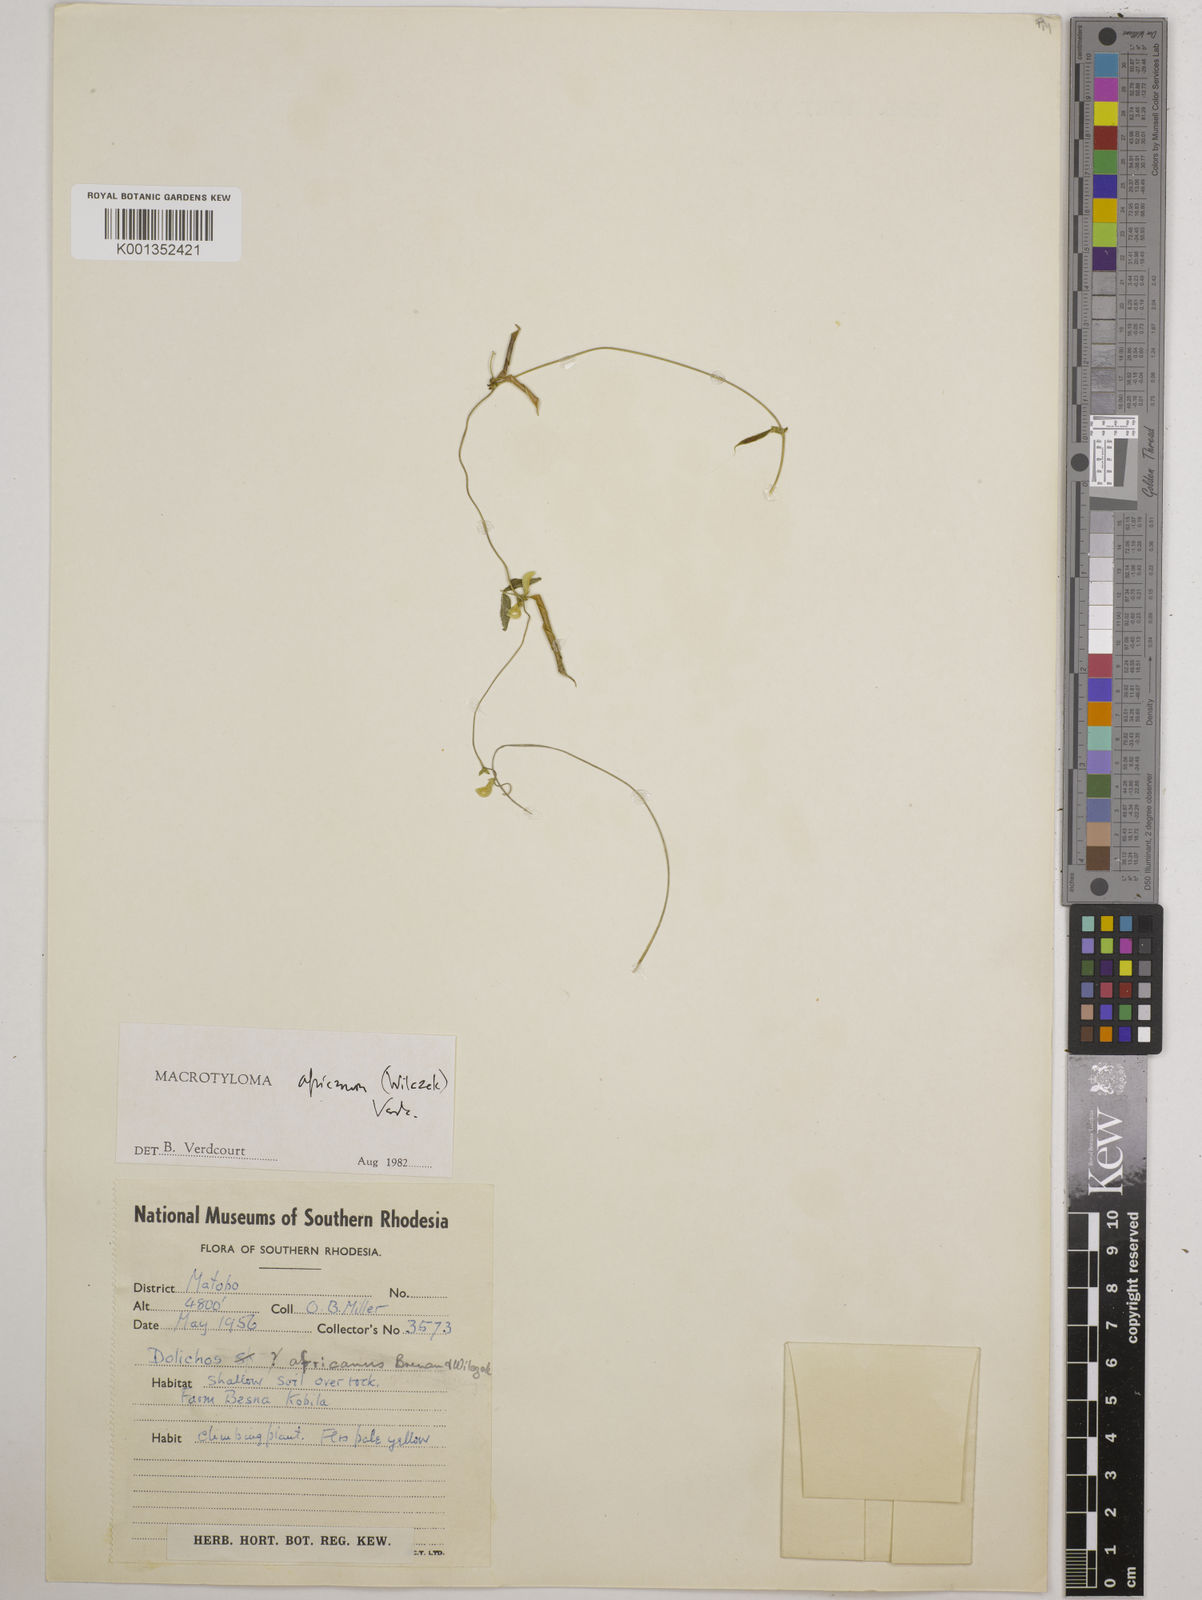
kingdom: Plantae
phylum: Tracheophyta
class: Magnoliopsida
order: Fabales
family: Fabaceae
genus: Macrotyloma
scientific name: Macrotyloma africanum
